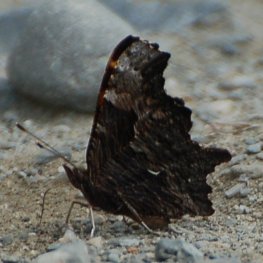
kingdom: Animalia
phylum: Arthropoda
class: Insecta
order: Lepidoptera
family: Nymphalidae
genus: Polygonia
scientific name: Polygonia progne
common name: Gray Comma
